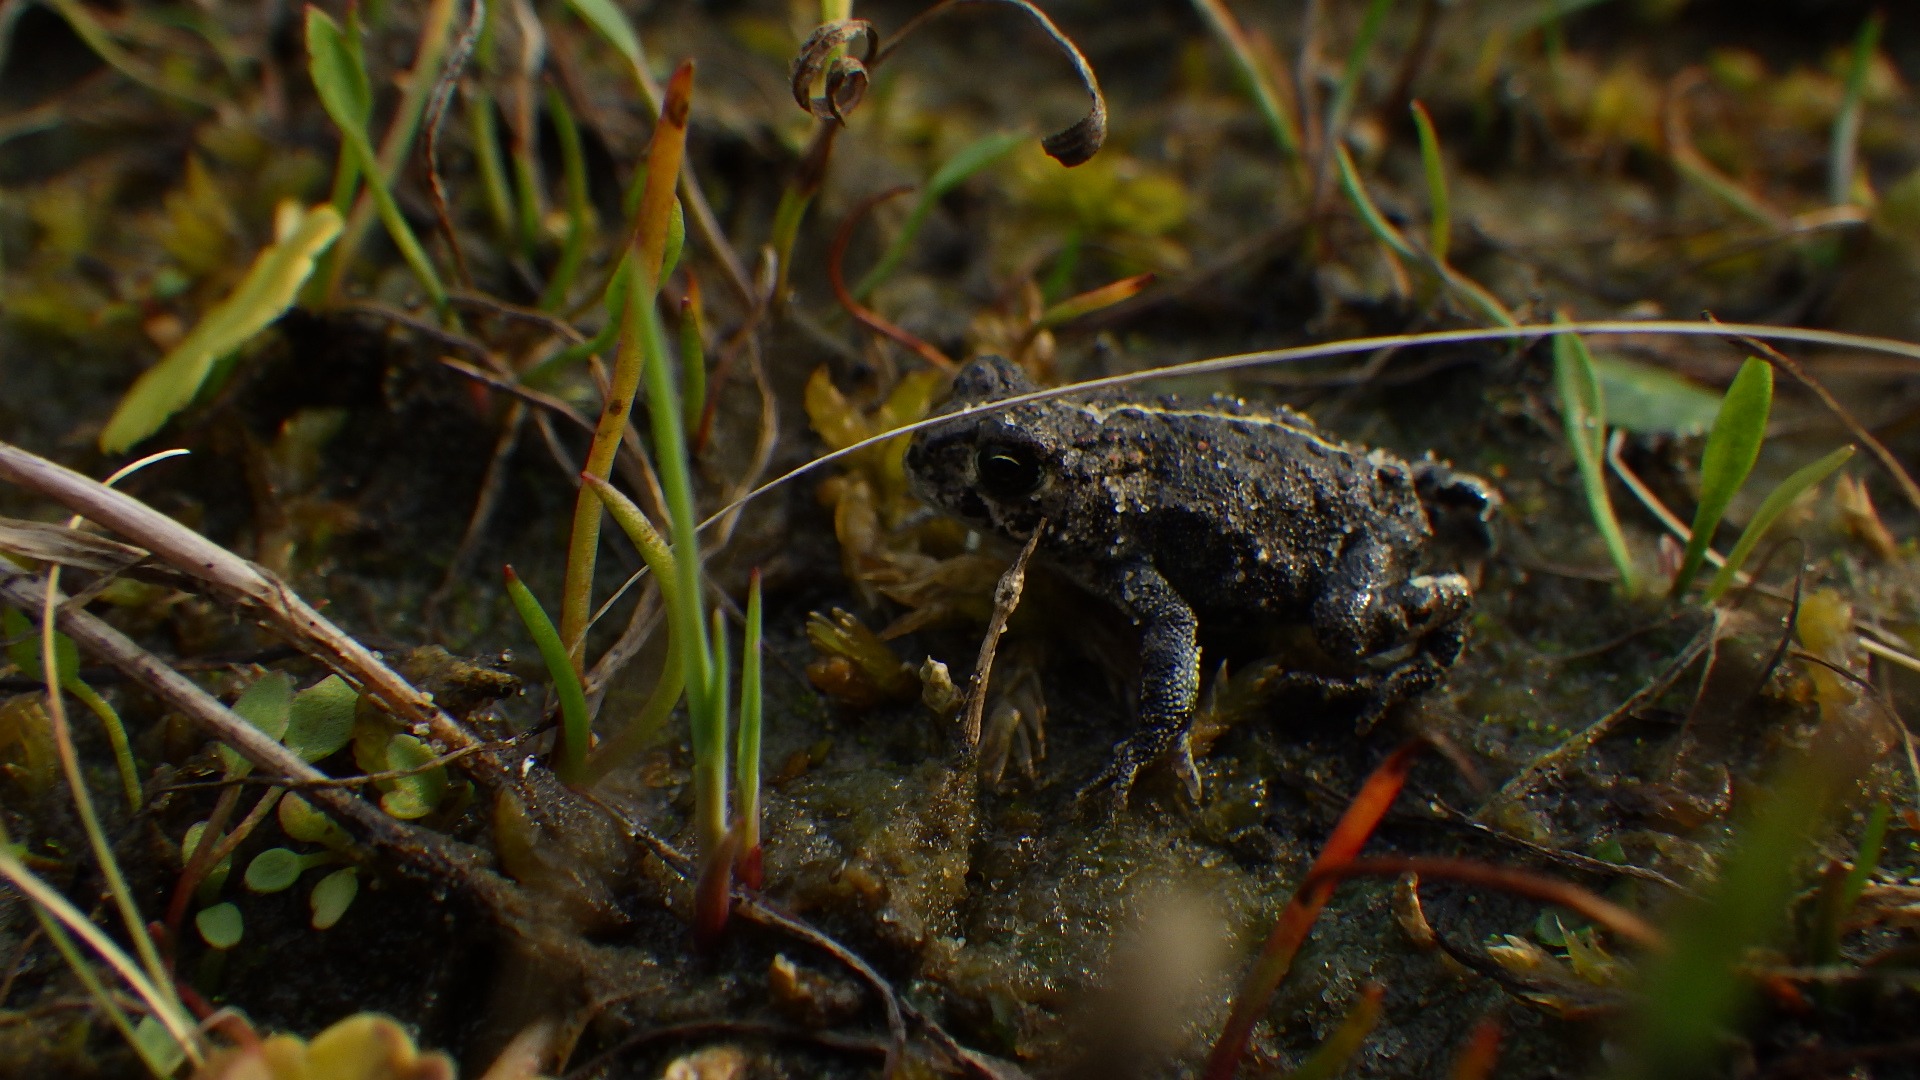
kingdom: Animalia
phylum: Chordata
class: Amphibia
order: Anura
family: Bufonidae
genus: Epidalea
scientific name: Epidalea calamita
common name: Strandtudse
